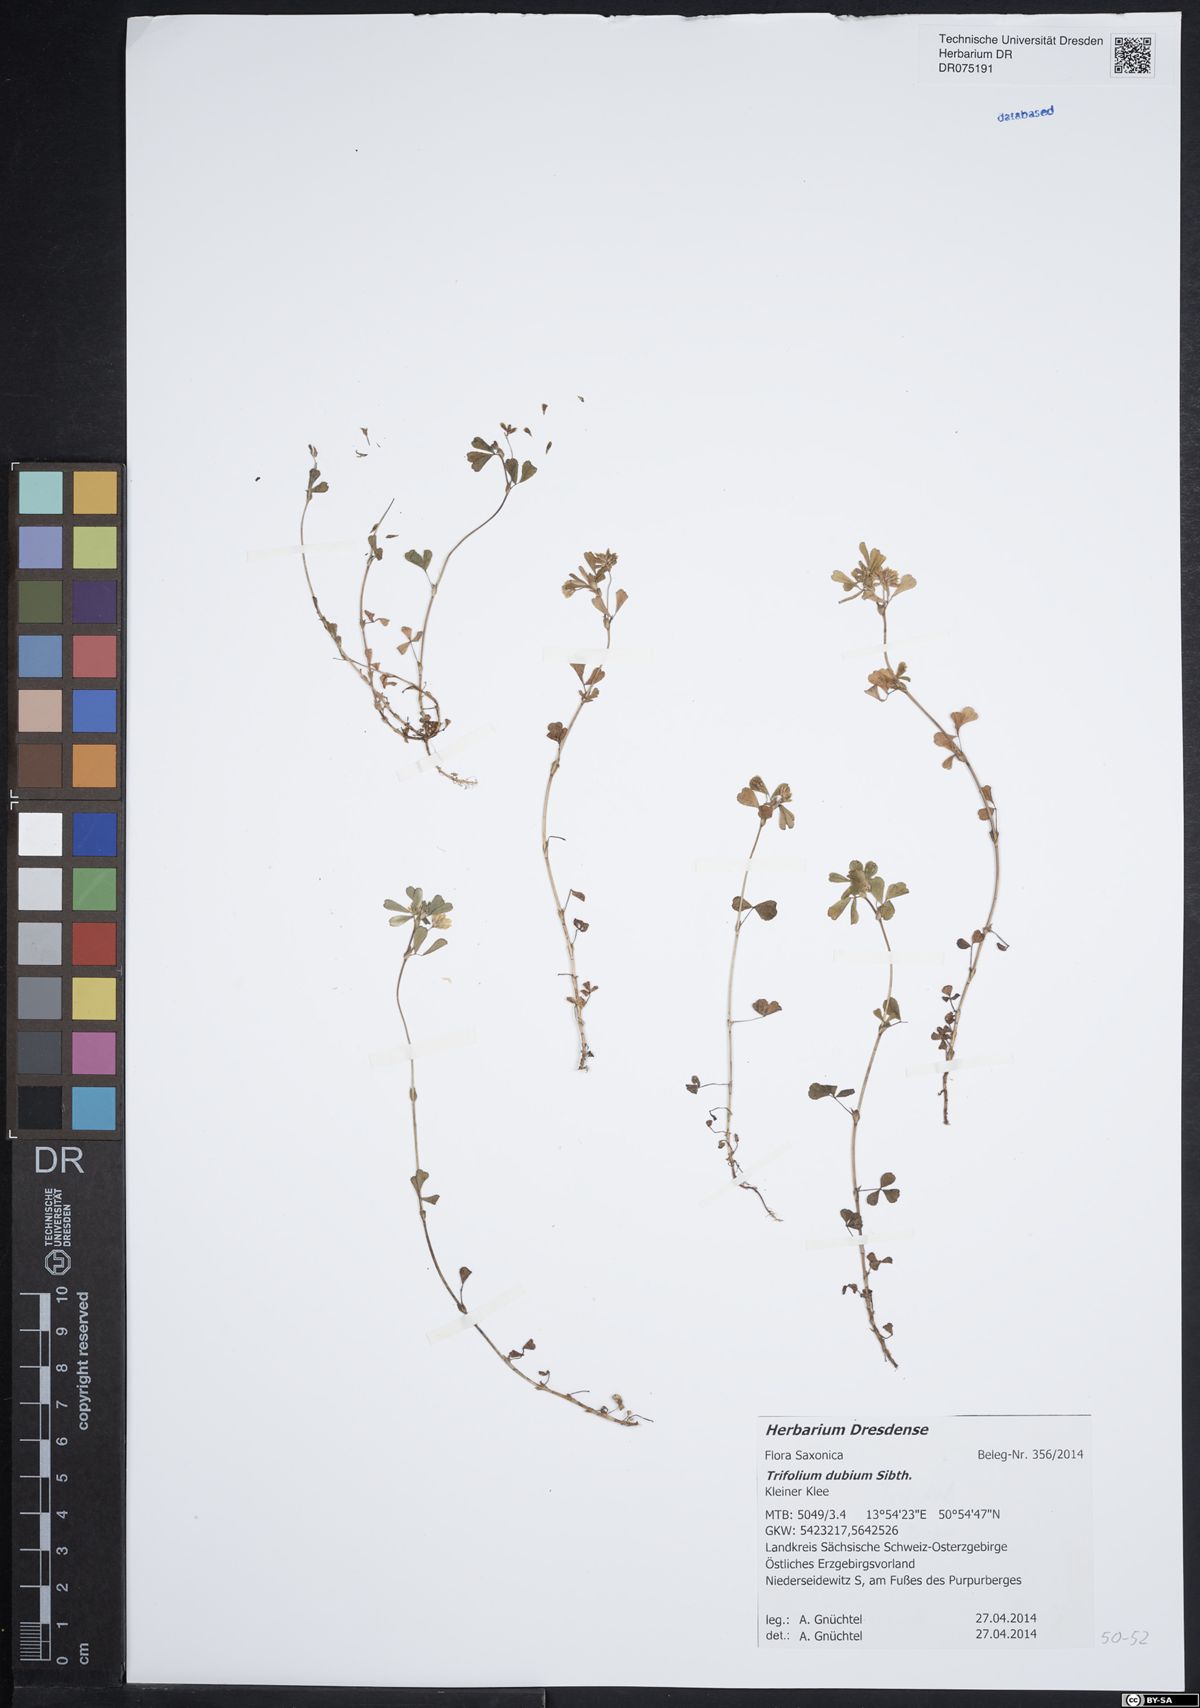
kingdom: Plantae
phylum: Tracheophyta
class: Magnoliopsida
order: Fabales
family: Fabaceae
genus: Trifolium
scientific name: Trifolium dubium
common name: Suckling clover
